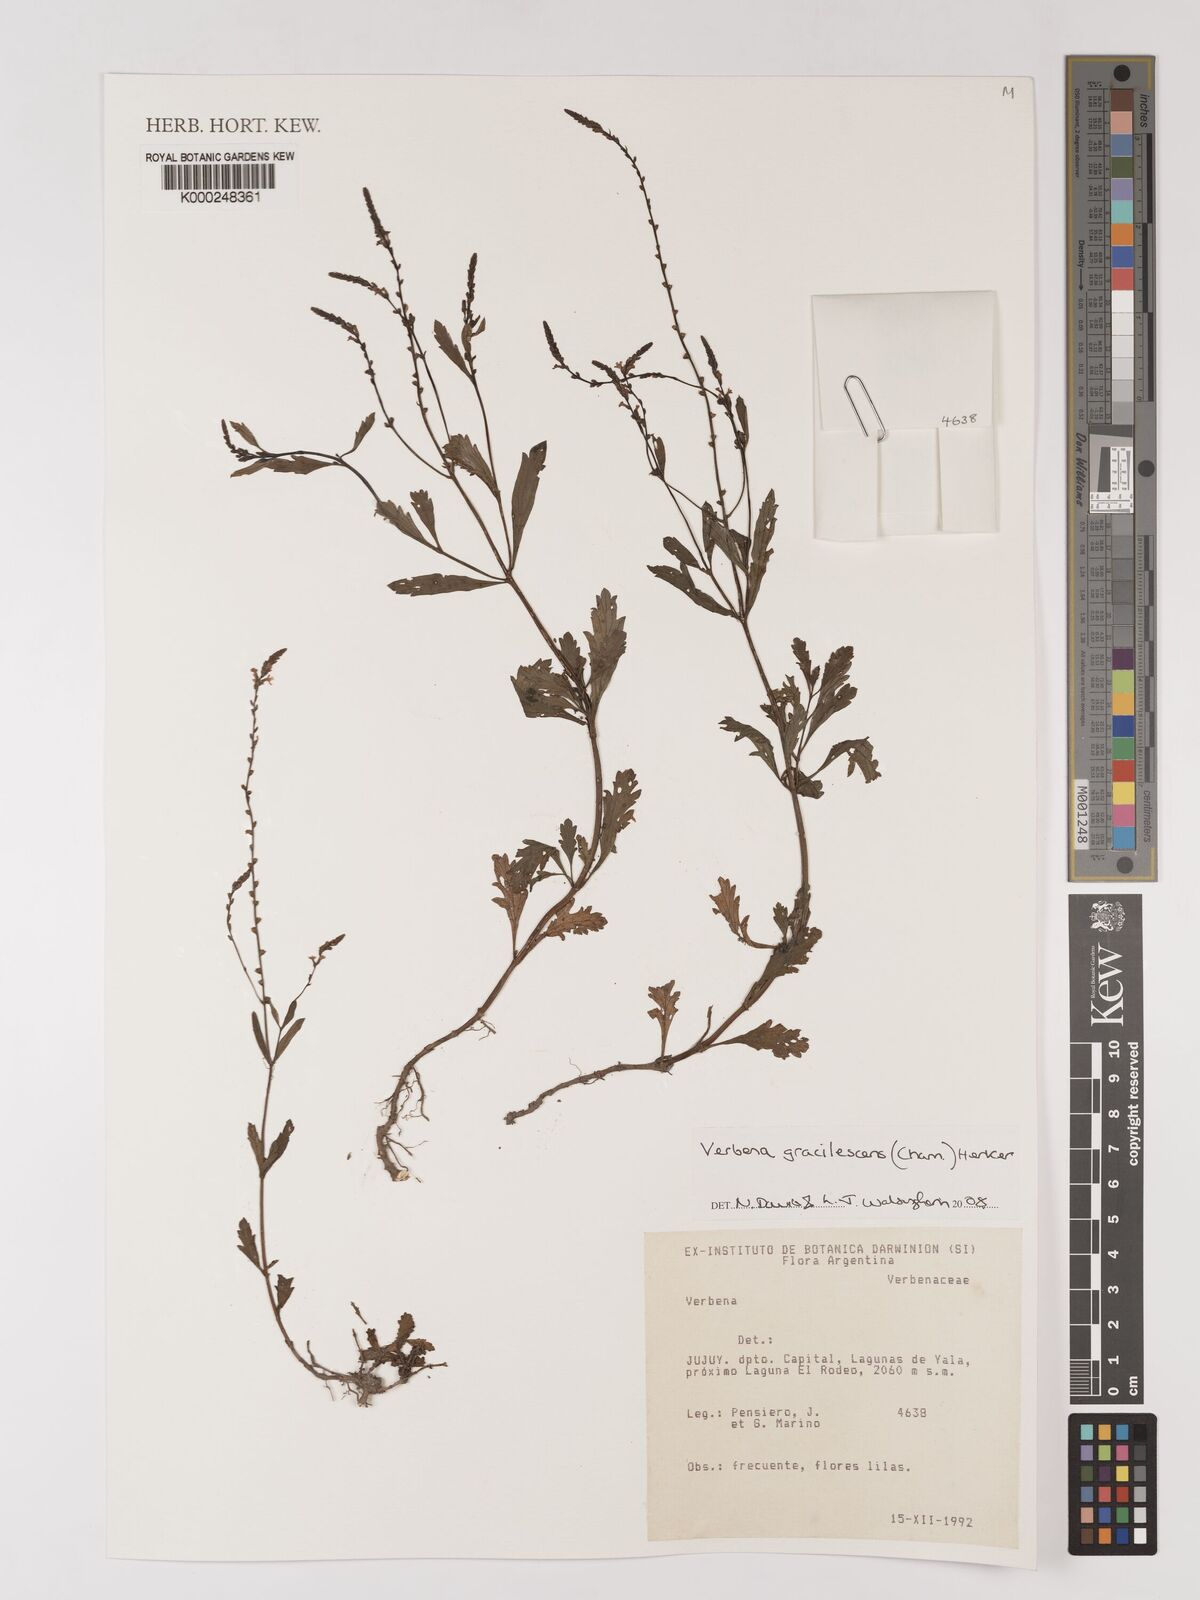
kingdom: Plantae
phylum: Tracheophyta
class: Magnoliopsida
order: Lamiales
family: Verbenaceae
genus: Verbena
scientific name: Verbena gracilescens
